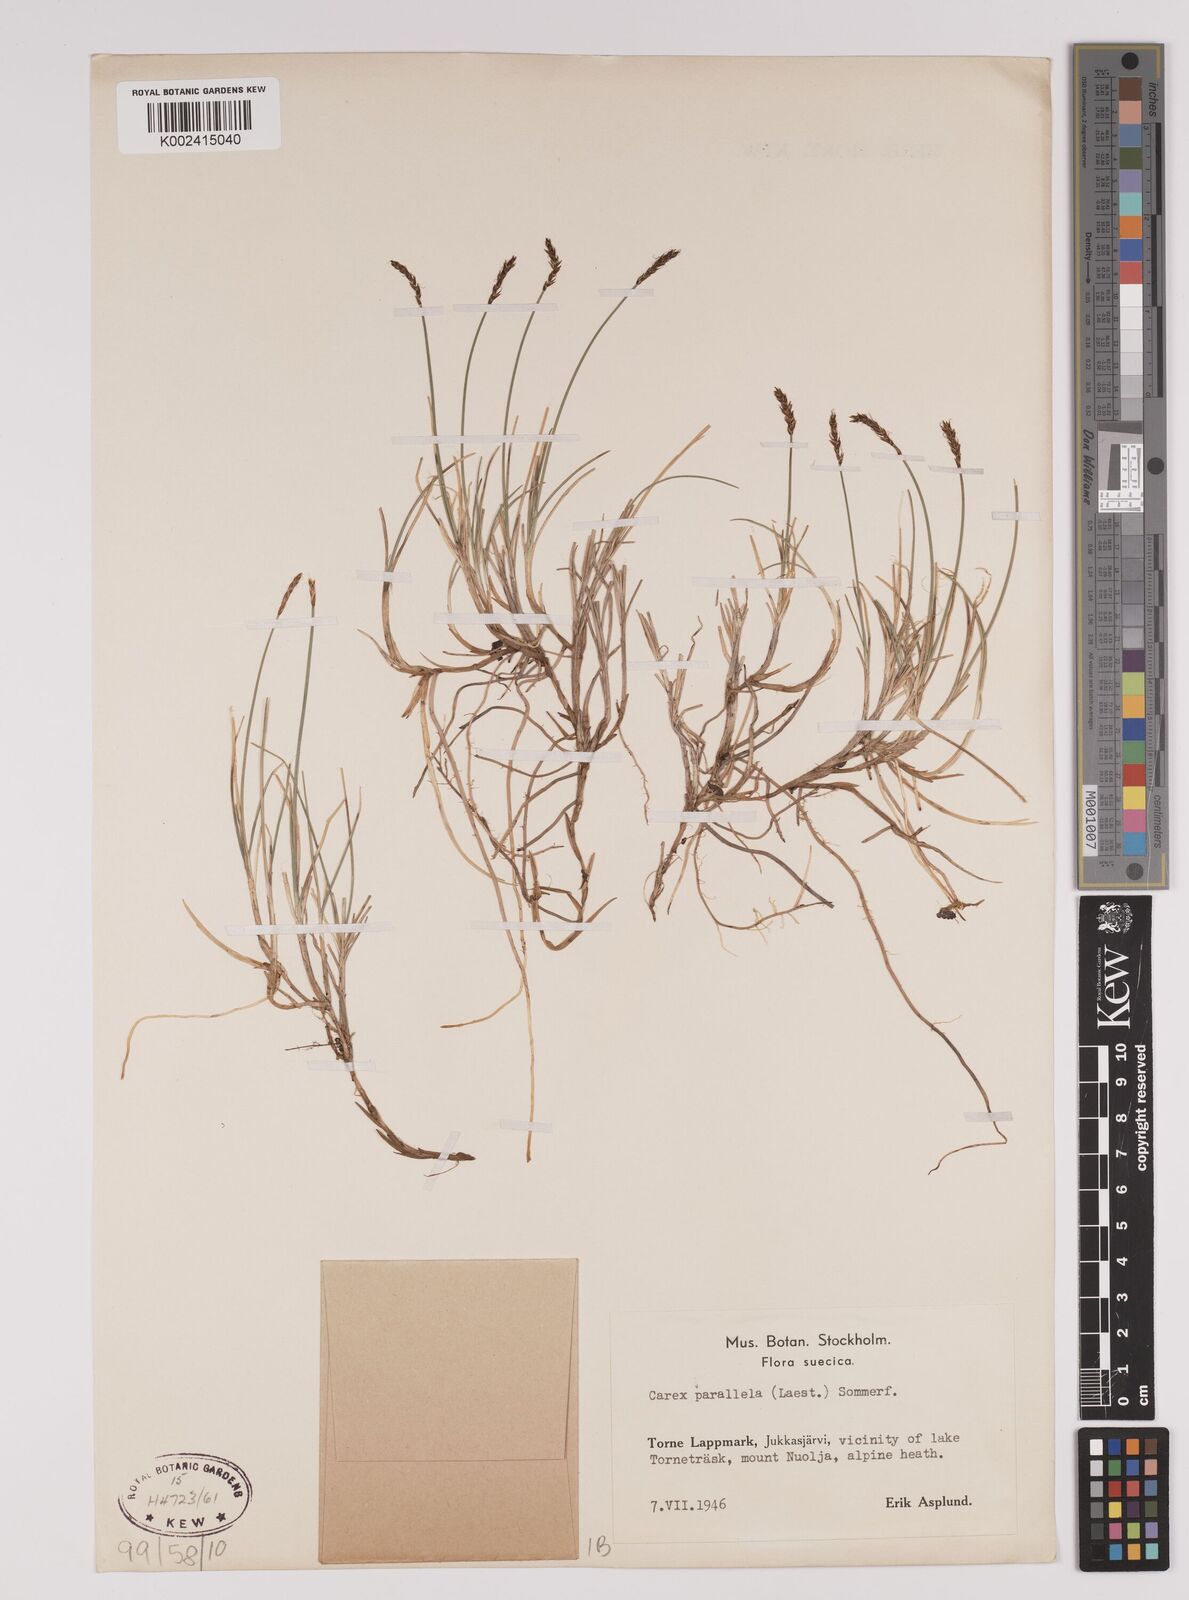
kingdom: Plantae
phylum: Tracheophyta
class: Liliopsida
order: Poales
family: Cyperaceae
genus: Carex
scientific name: Carex parallela
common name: Parallel sedge
